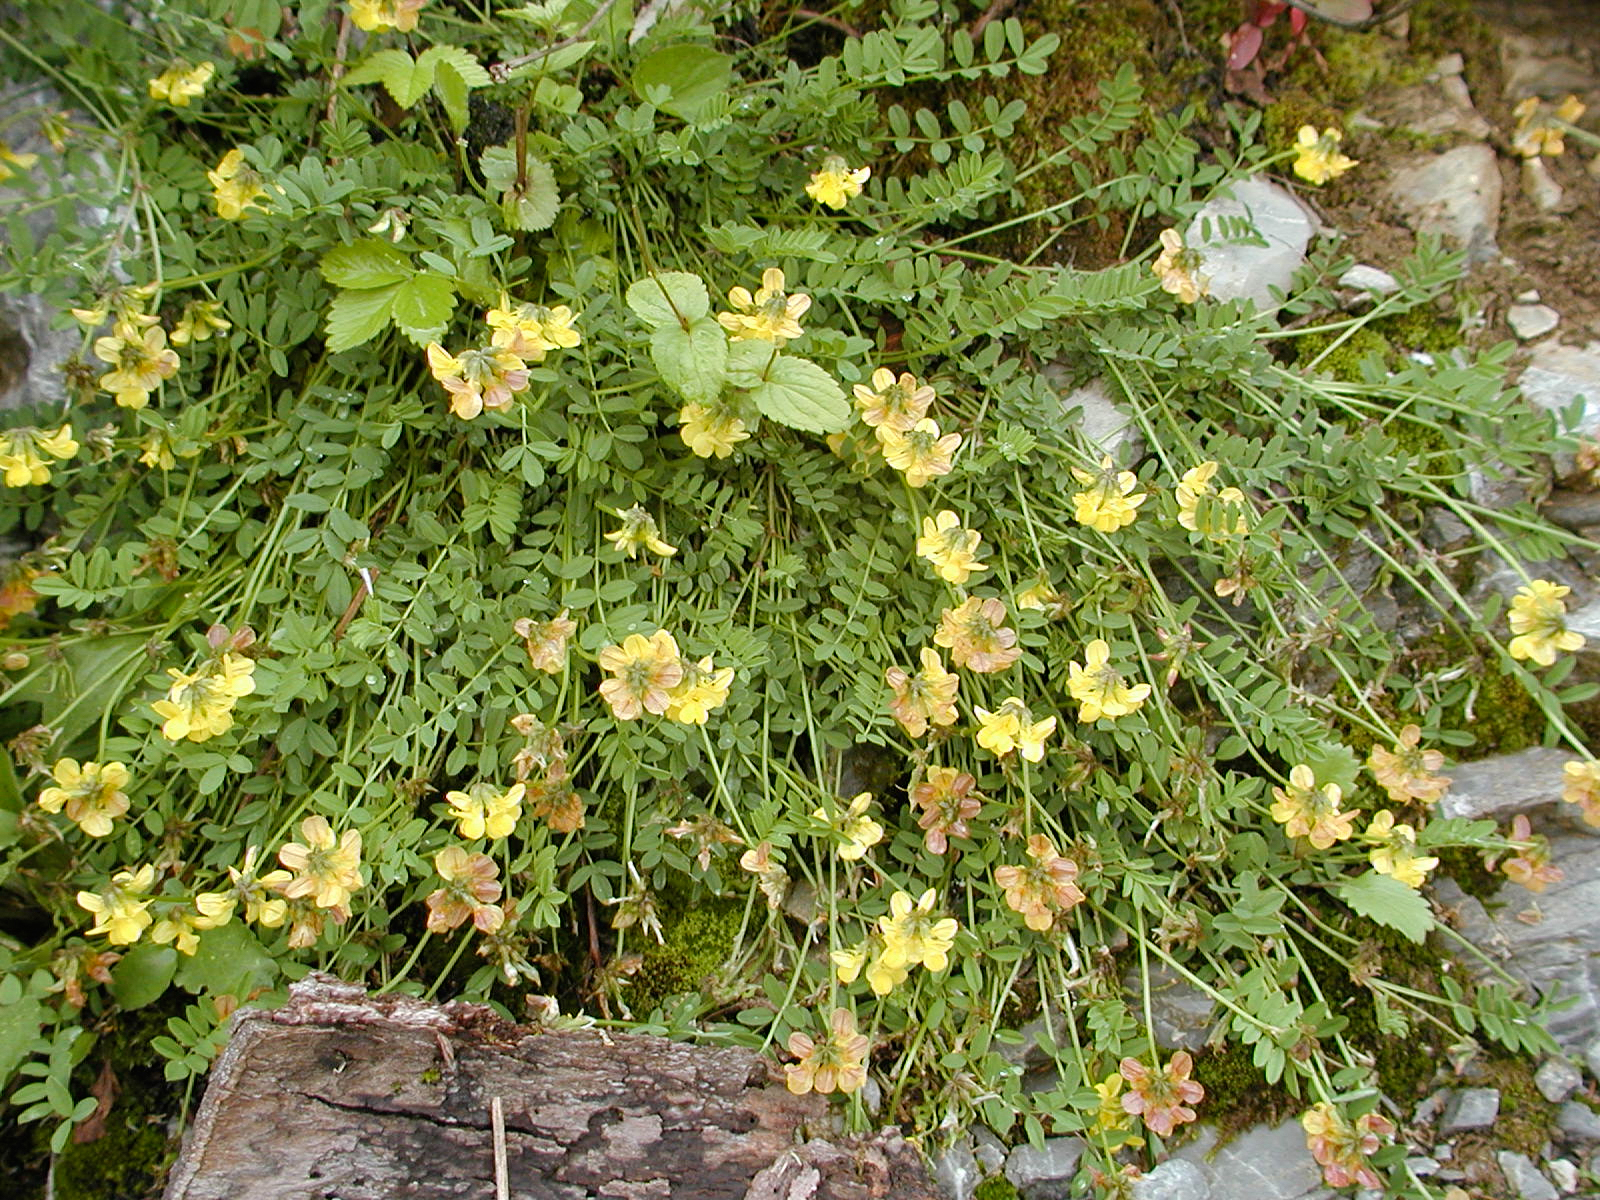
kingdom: Plantae
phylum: Tracheophyta
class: Magnoliopsida
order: Fabales
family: Fabaceae
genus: Hippocrepis
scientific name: Hippocrepis comosa
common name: Horseshoe vetch
